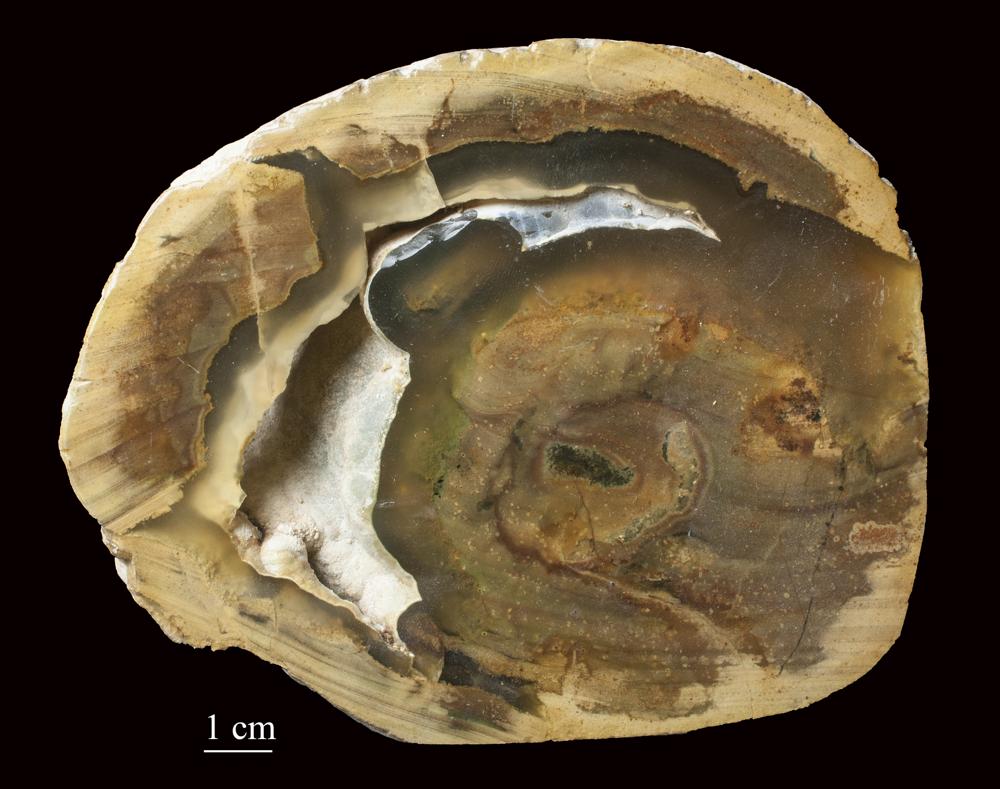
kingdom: Plantae
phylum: Tracheophyta
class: Liliopsida
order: Arecales
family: Arecaceae
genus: Cocos
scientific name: Cocos nucifera
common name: Coconut palm
